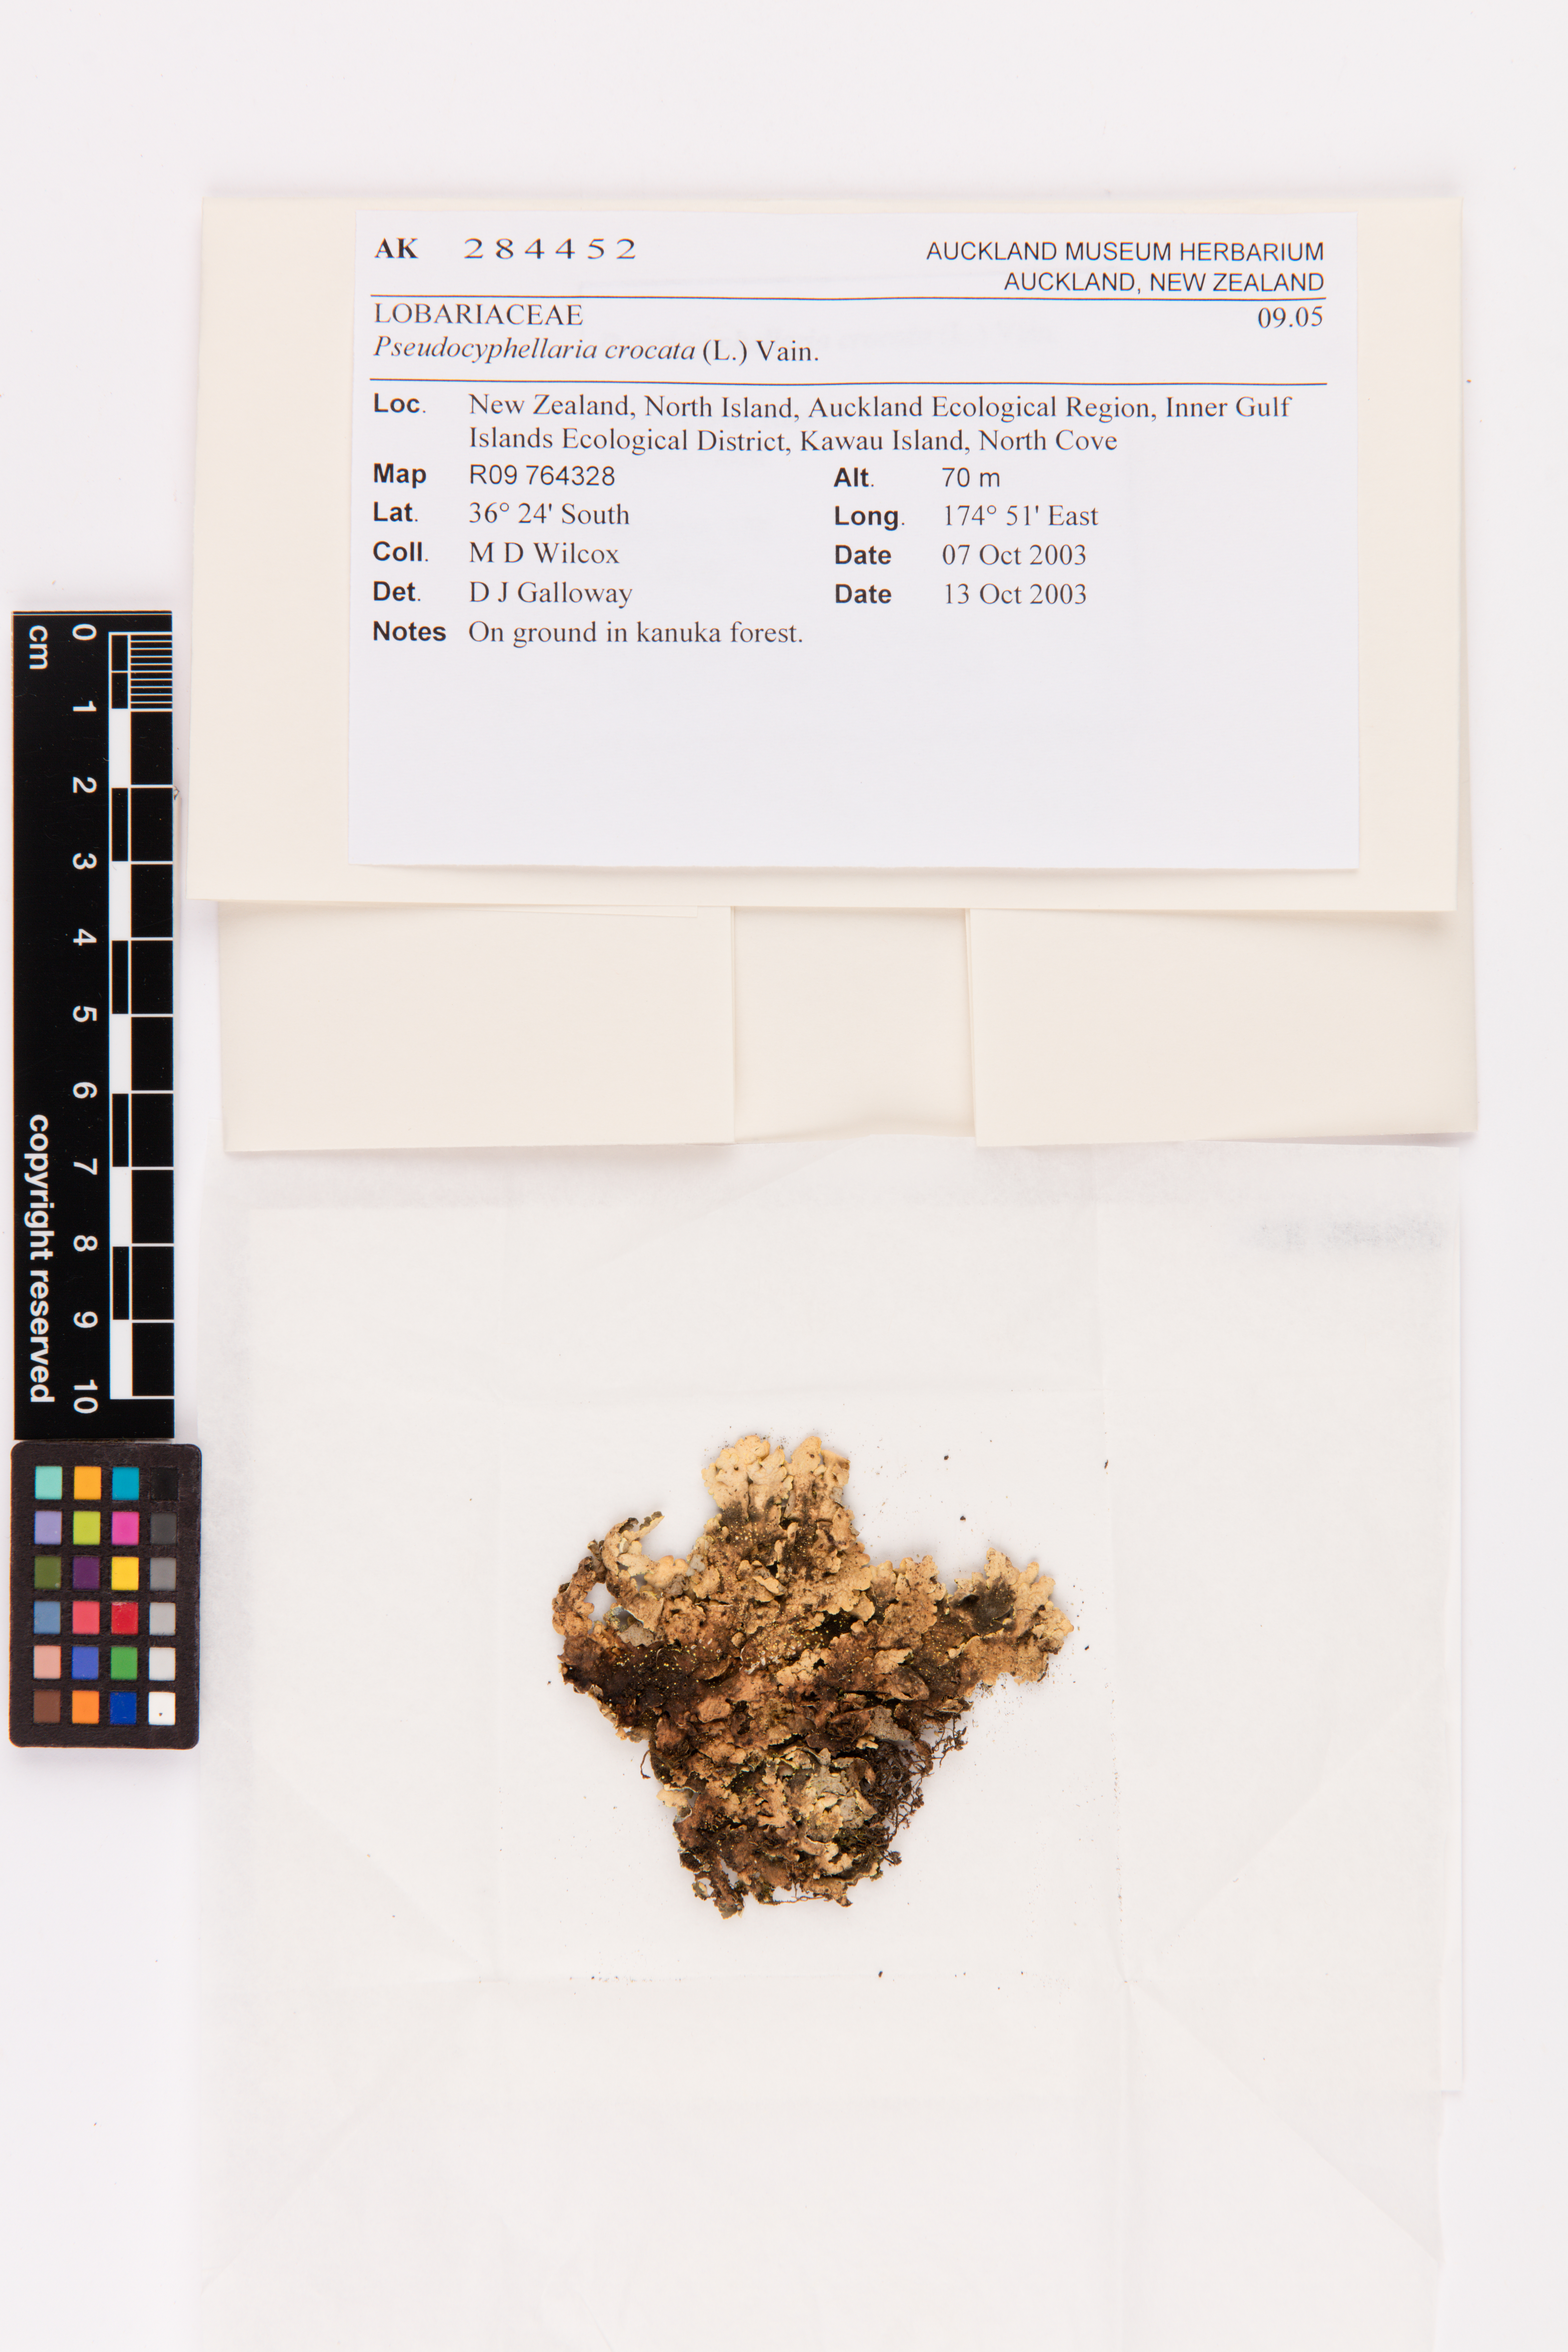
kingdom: Fungi
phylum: Ascomycota
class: Lecanoromycetes
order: Peltigerales
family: Lobariaceae
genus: Pseudocyphellaria
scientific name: Pseudocyphellaria crocata
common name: Golden specklebelly
